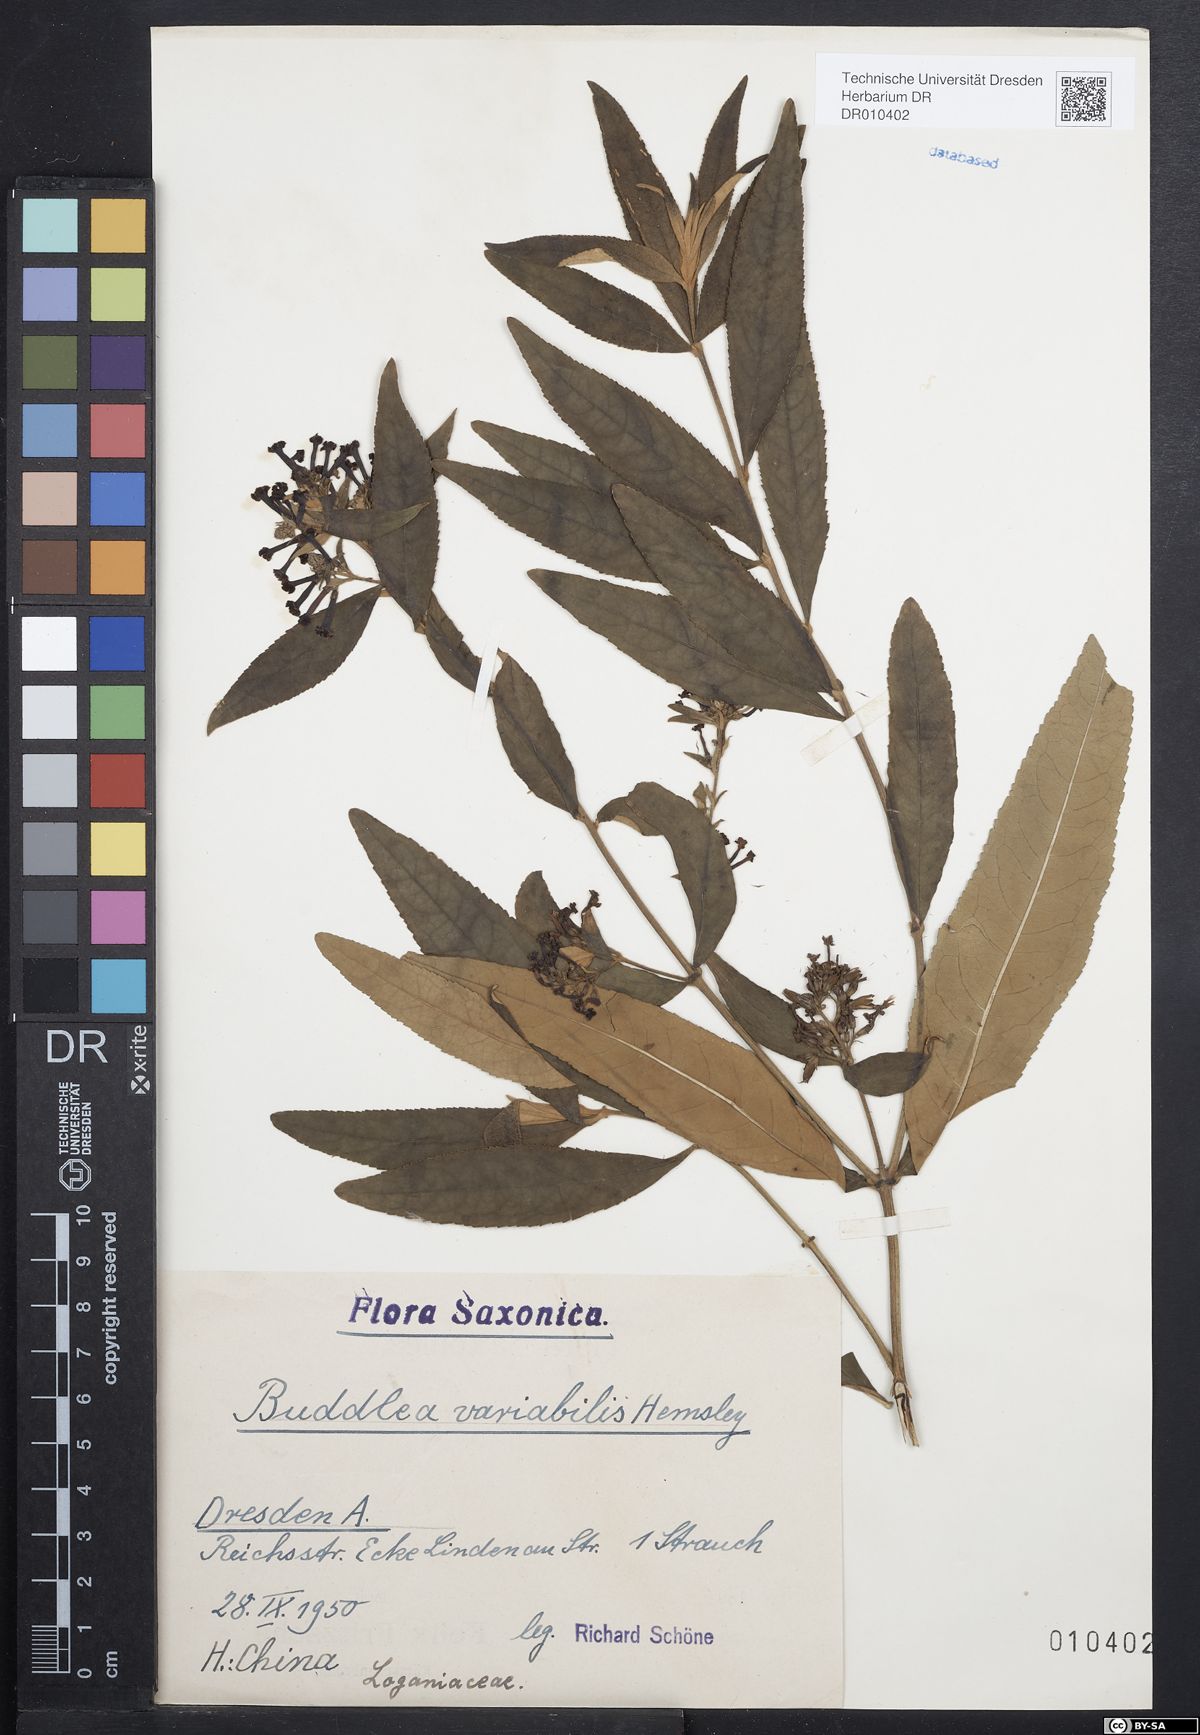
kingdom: Plantae
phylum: Tracheophyta
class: Magnoliopsida
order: Lamiales
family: Scrophulariaceae
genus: Buddleja
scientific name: Buddleja davidii
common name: Butterfly-bush
